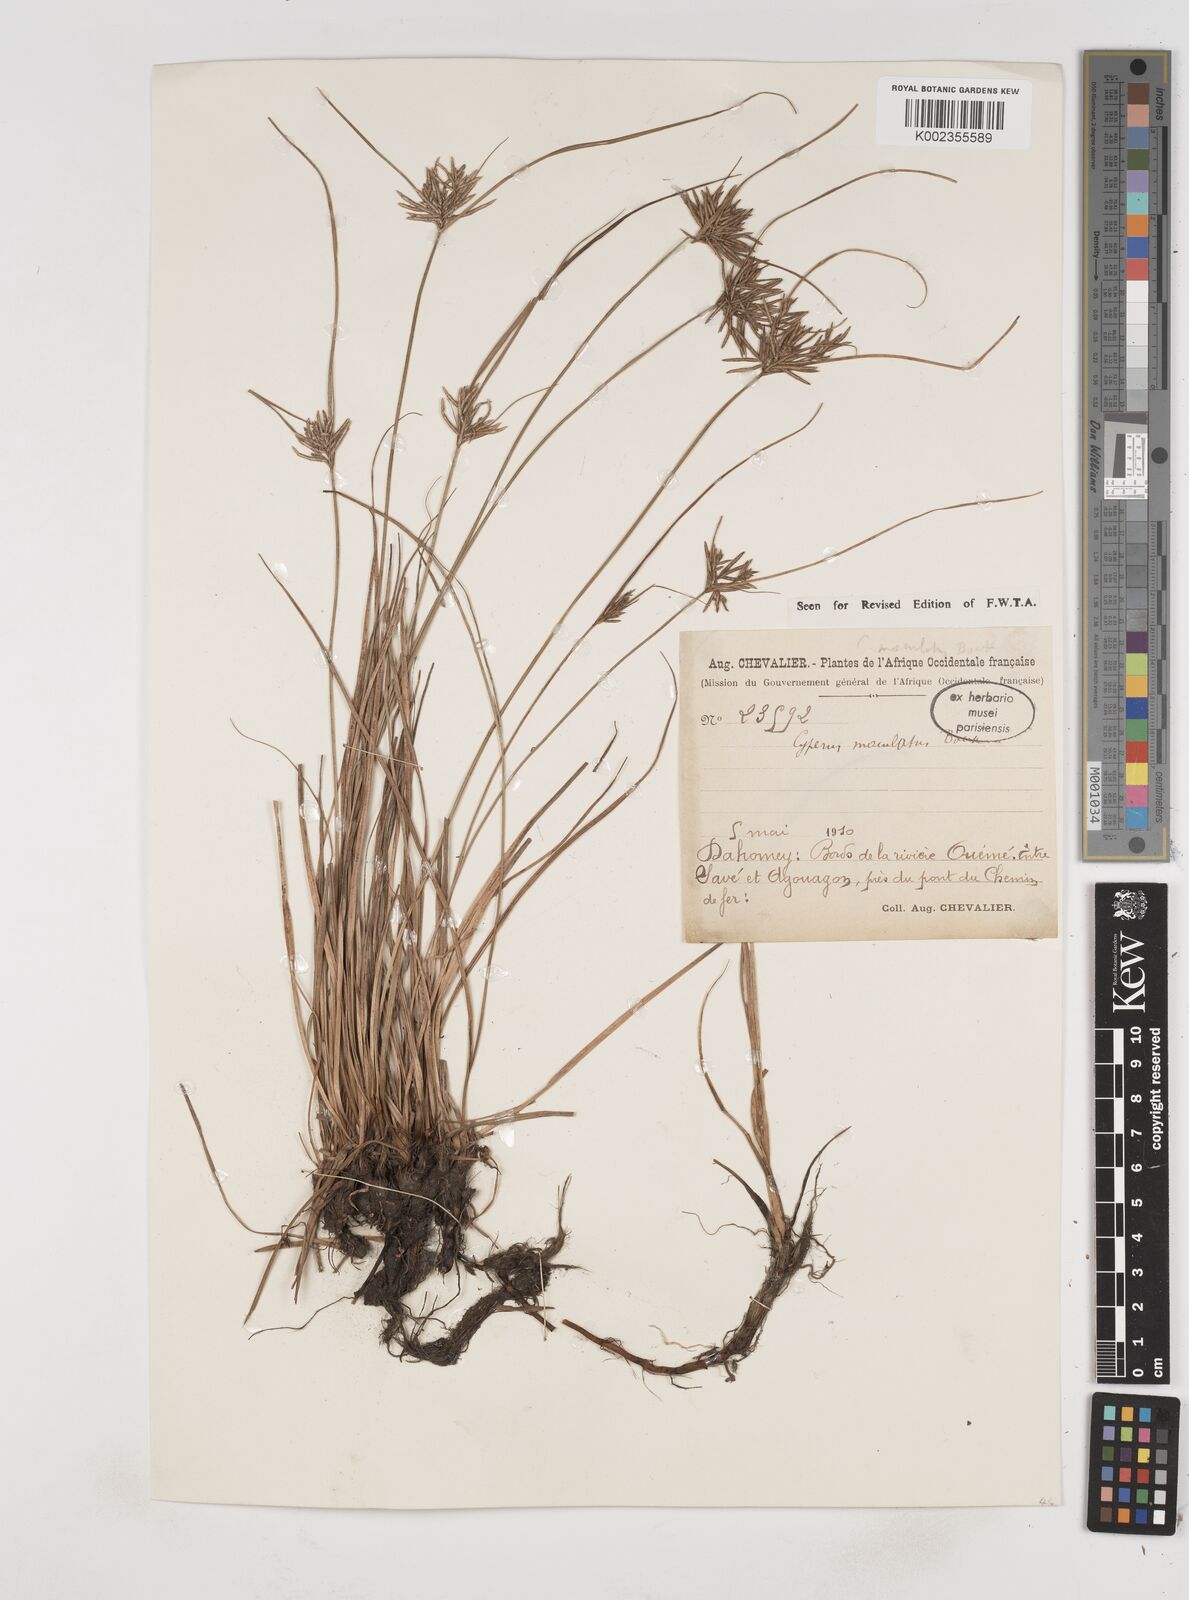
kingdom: Plantae
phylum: Tracheophyta
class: Liliopsida
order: Poales
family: Cyperaceae
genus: Cyperus
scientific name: Cyperus maculatus
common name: Maculated sedge
